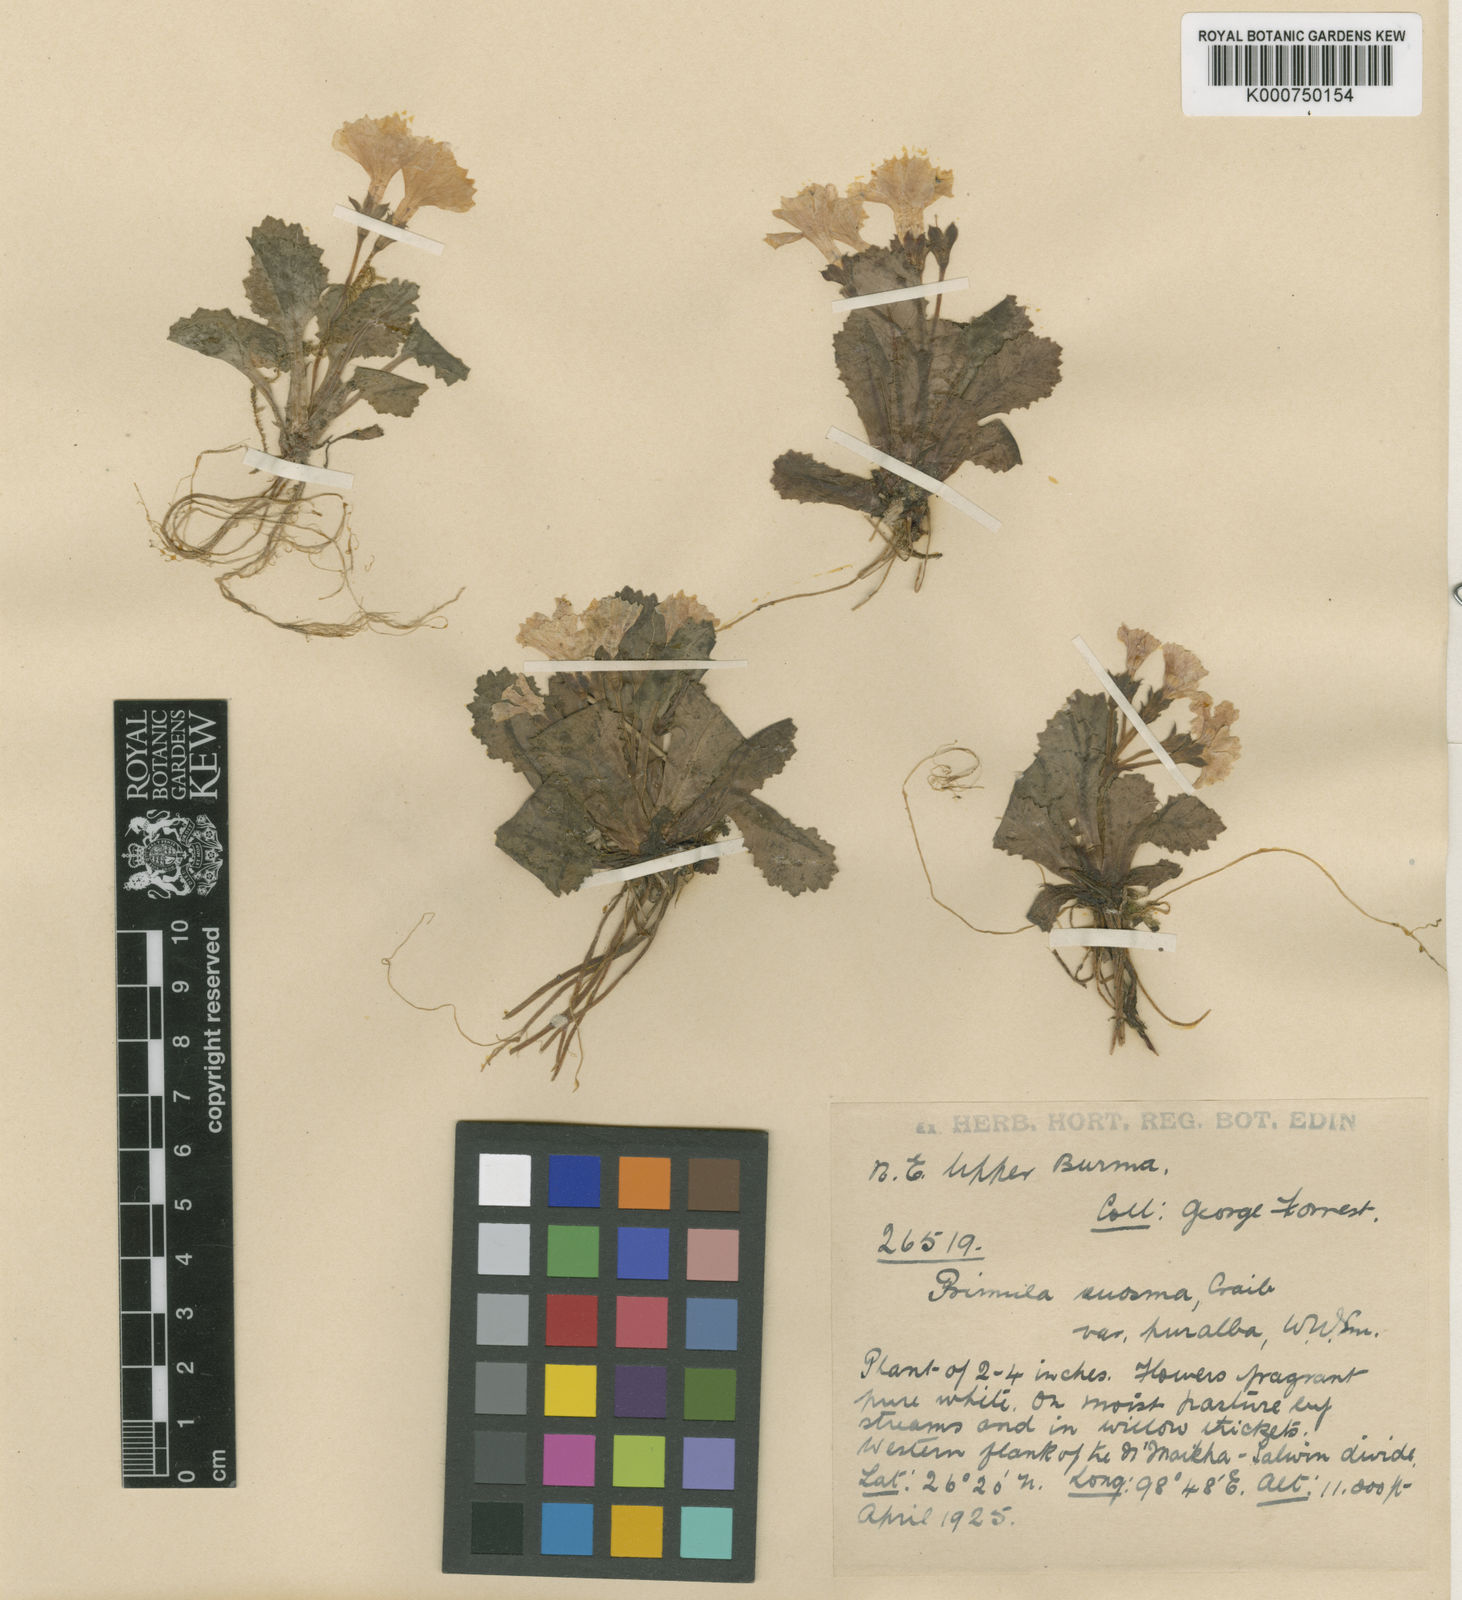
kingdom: Plantae
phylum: Tracheophyta
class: Magnoliopsida
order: Ericales
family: Primulaceae
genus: Primula
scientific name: Primula euosma
